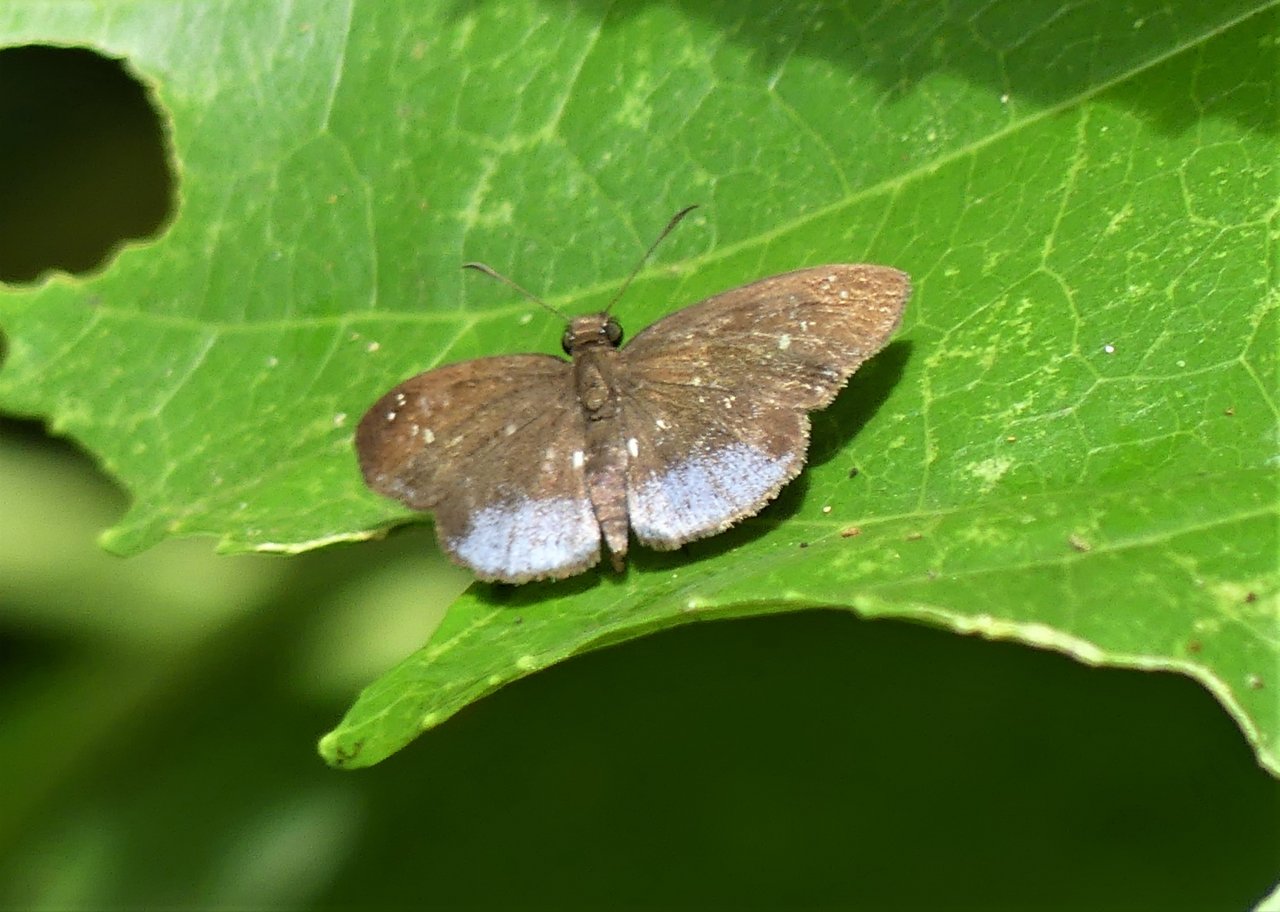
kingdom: Animalia
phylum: Arthropoda
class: Insecta
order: Lepidoptera
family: Hesperiidae
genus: Pythonides
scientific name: Pythonides proxenus
